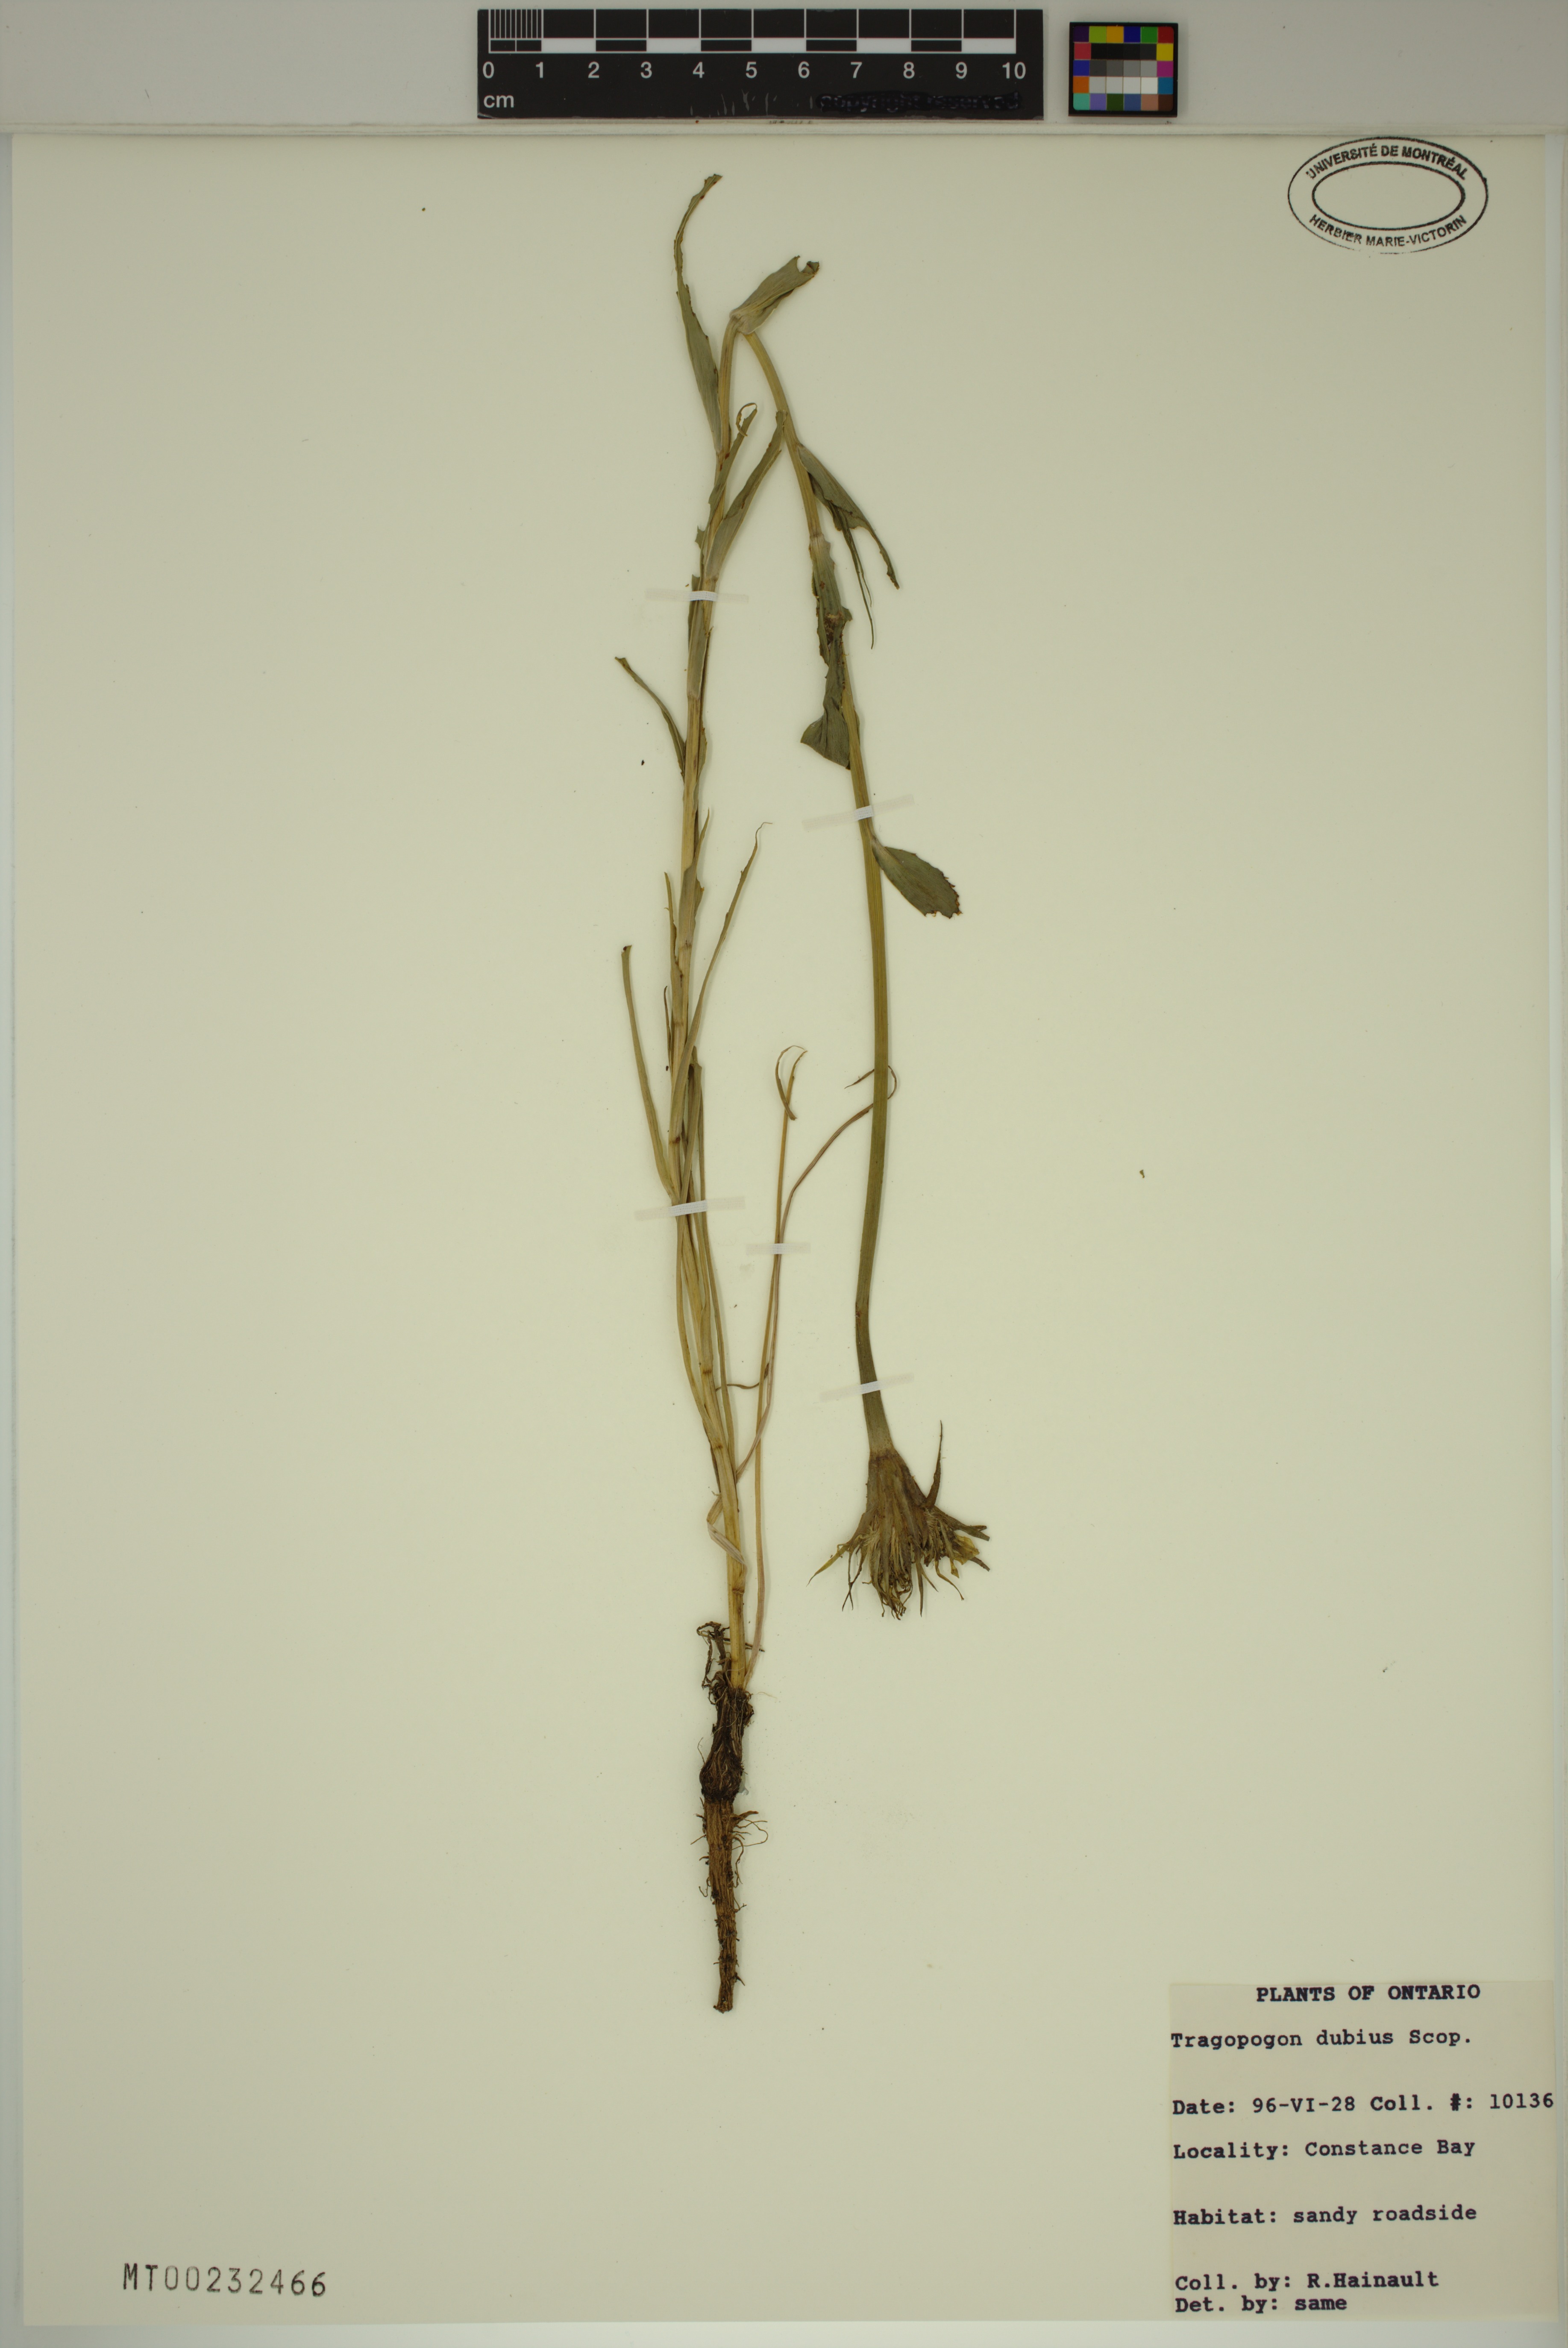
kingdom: Plantae
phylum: Tracheophyta
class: Magnoliopsida
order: Asterales
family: Asteraceae
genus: Tragopogon
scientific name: Tragopogon dubius
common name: Yellow salsify
